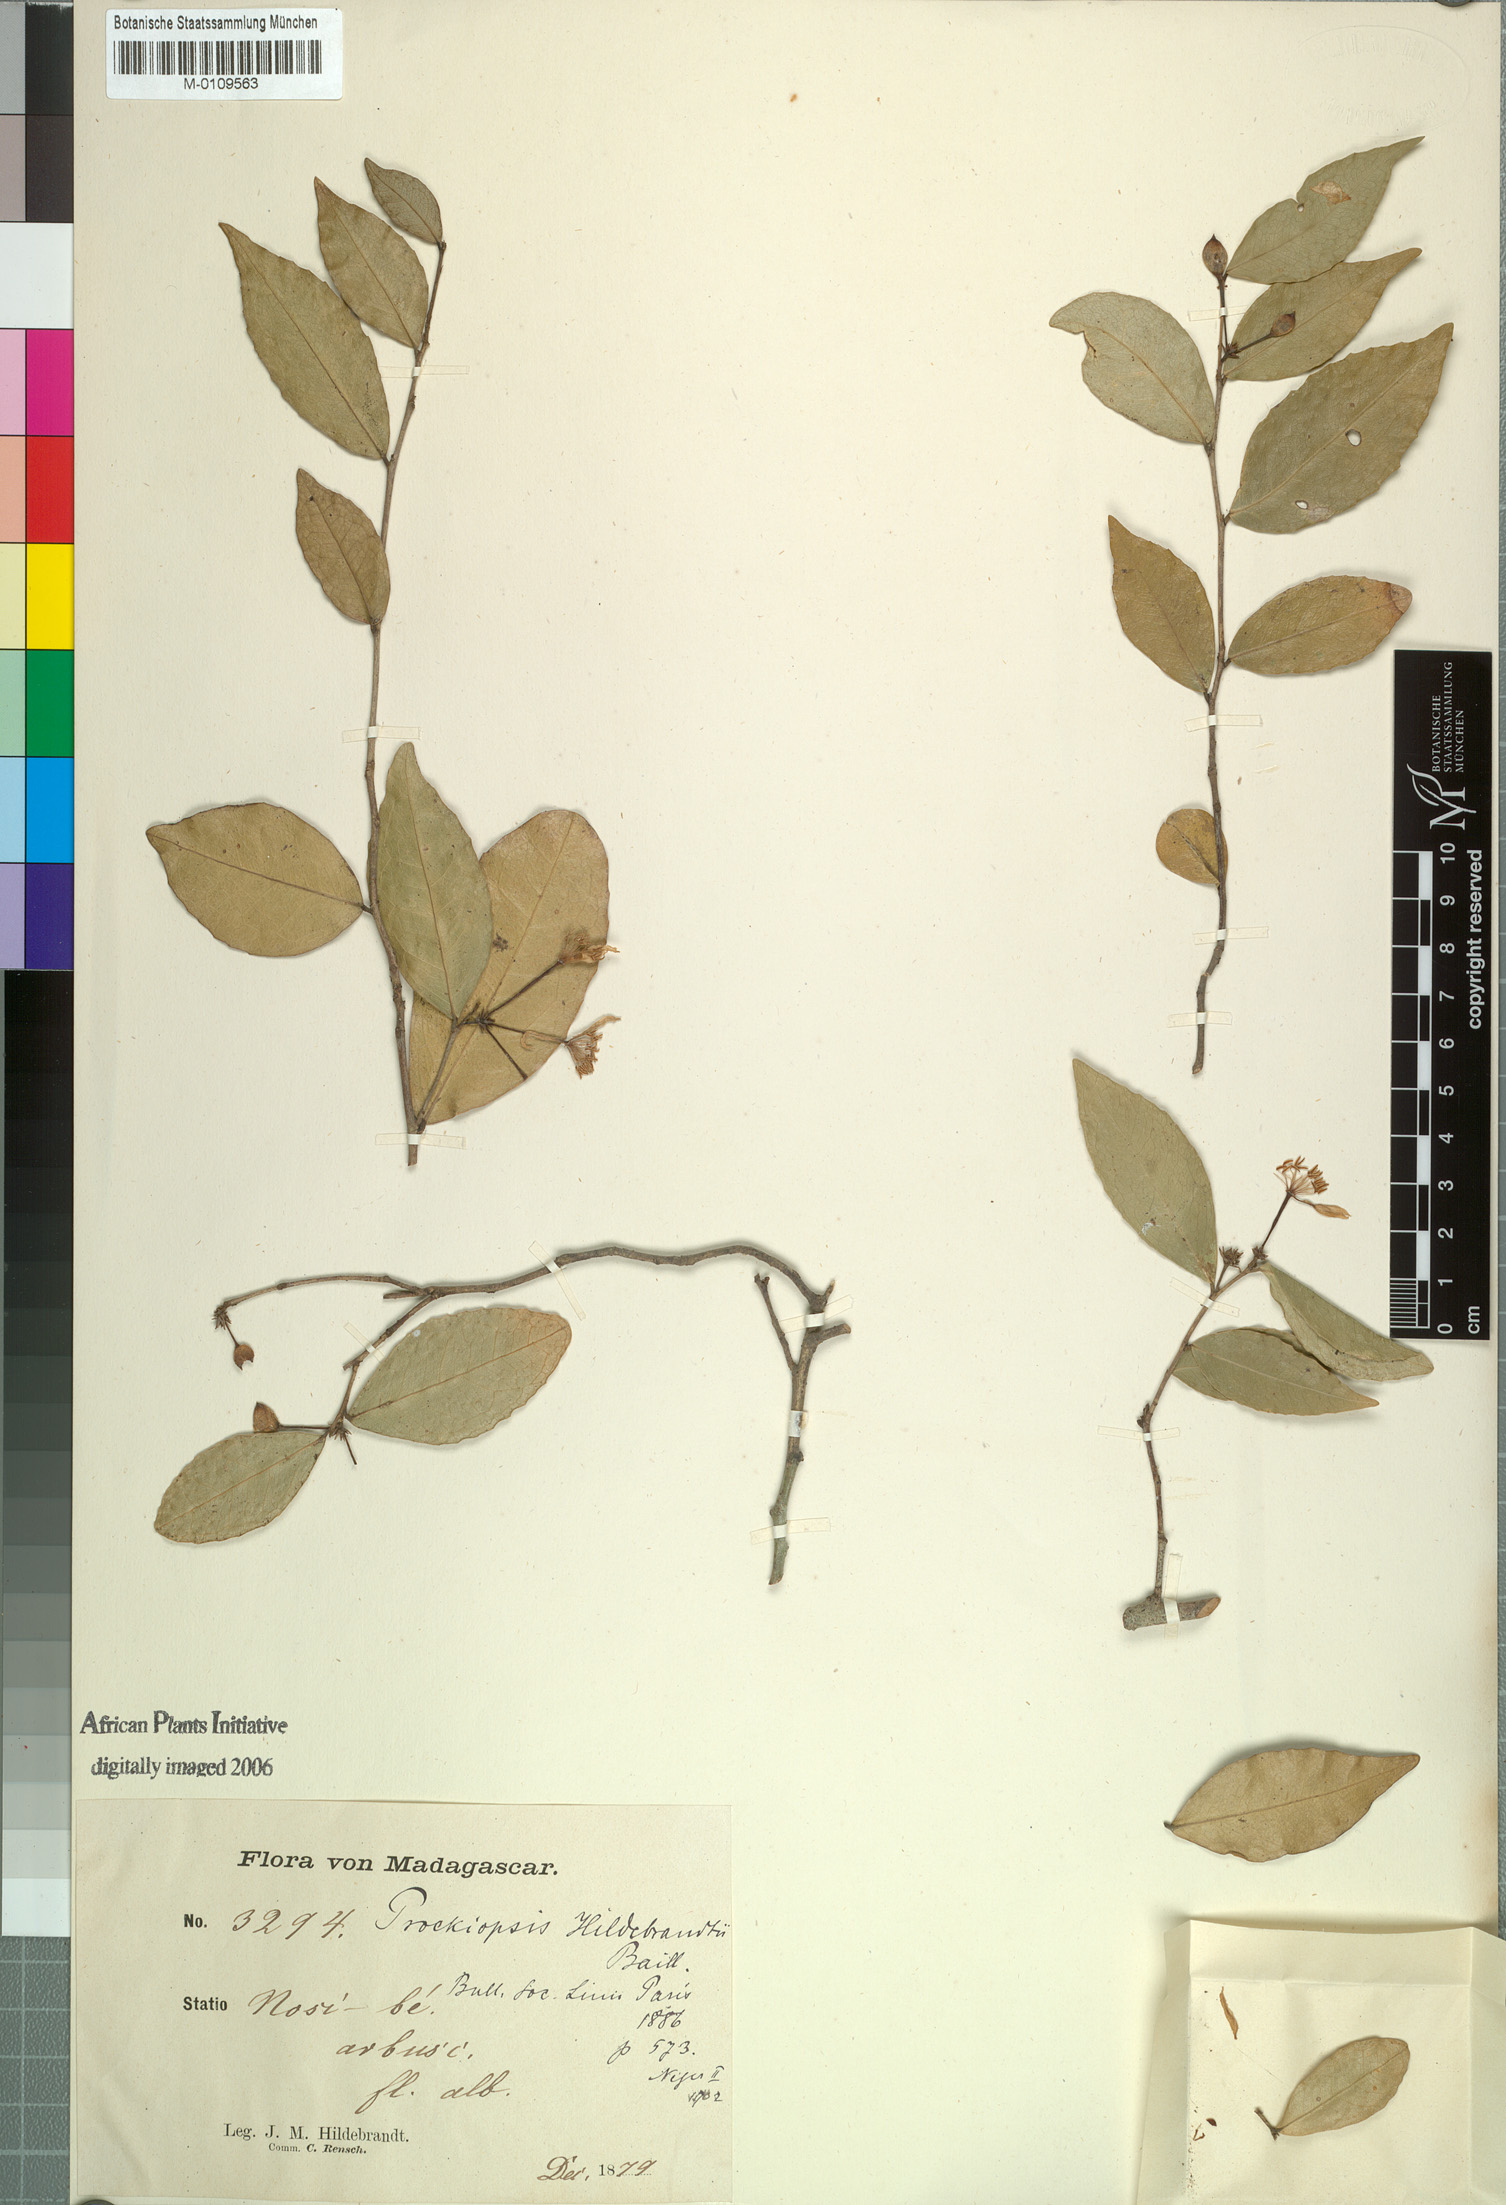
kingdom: Plantae
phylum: Tracheophyta
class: Magnoliopsida
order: Malpighiales
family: Achariaceae
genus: Prockiopsis
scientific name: Prockiopsis hildebrandtii
